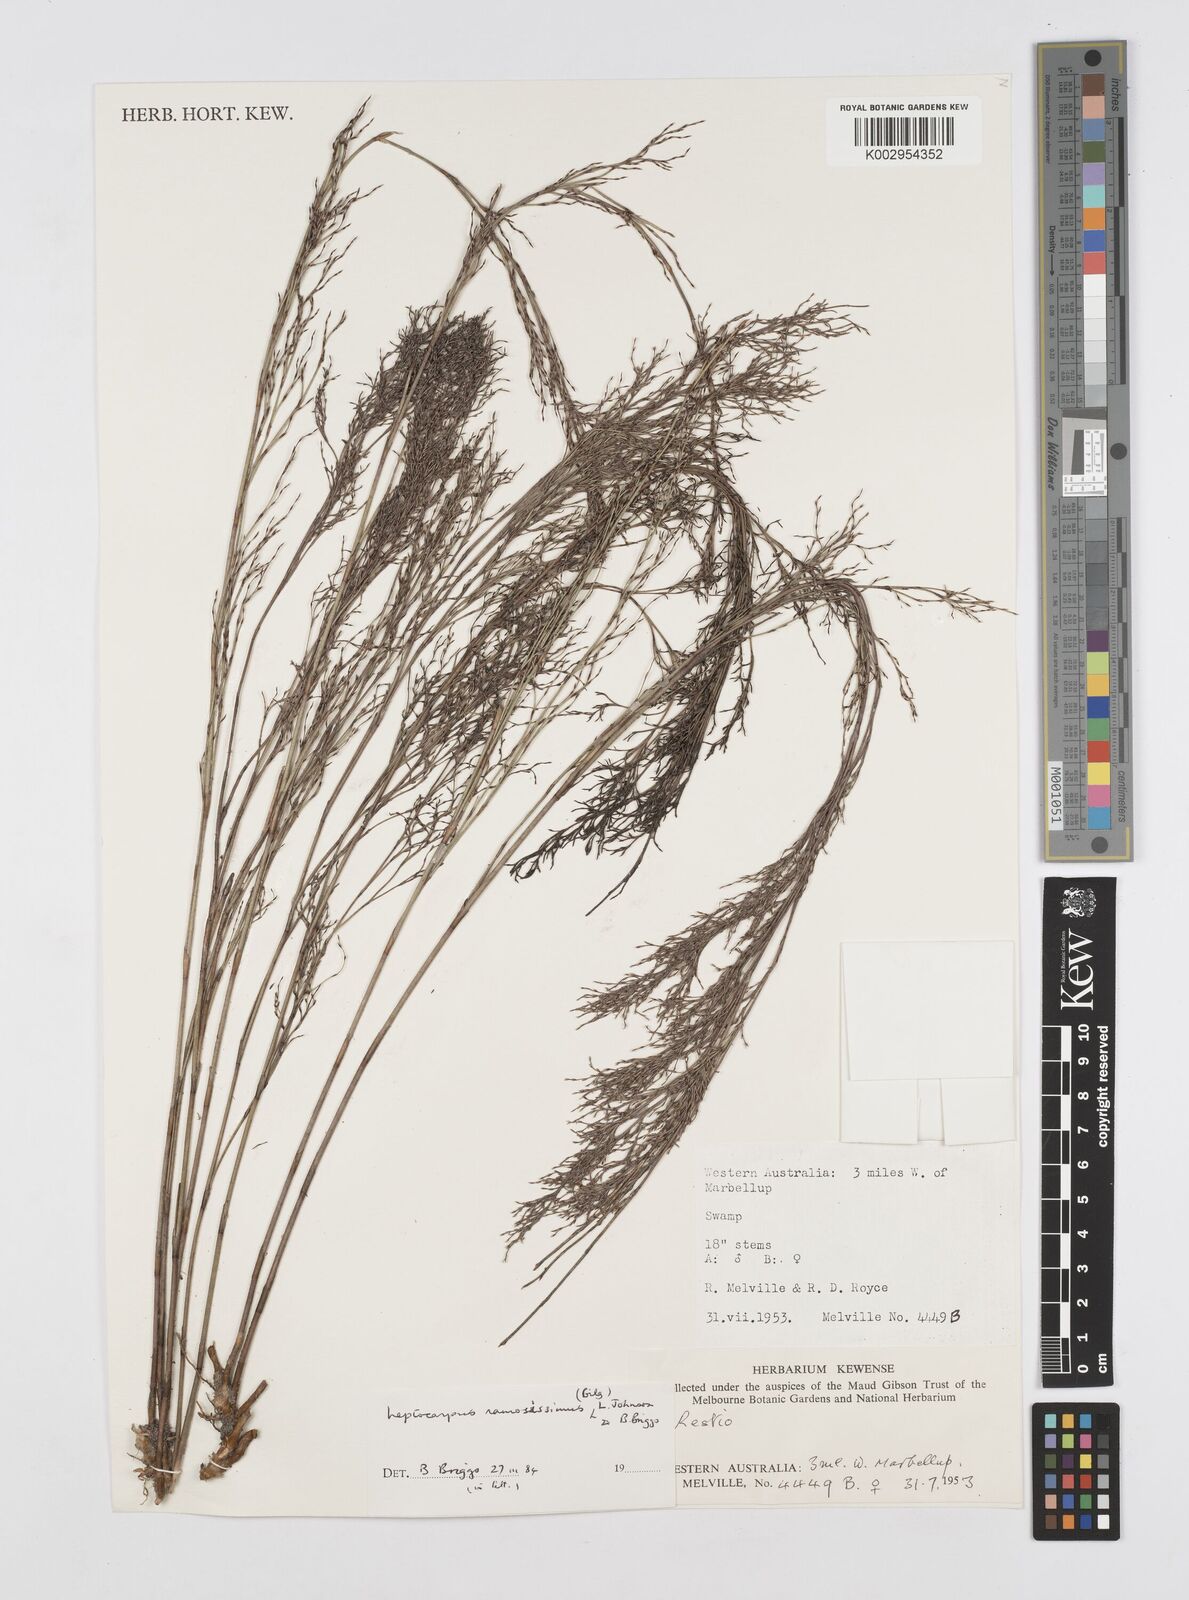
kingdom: Plantae
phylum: Tracheophyta
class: Liliopsida
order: Poales
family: Restionaceae
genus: Leptocarpus
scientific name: Leptocarpus
